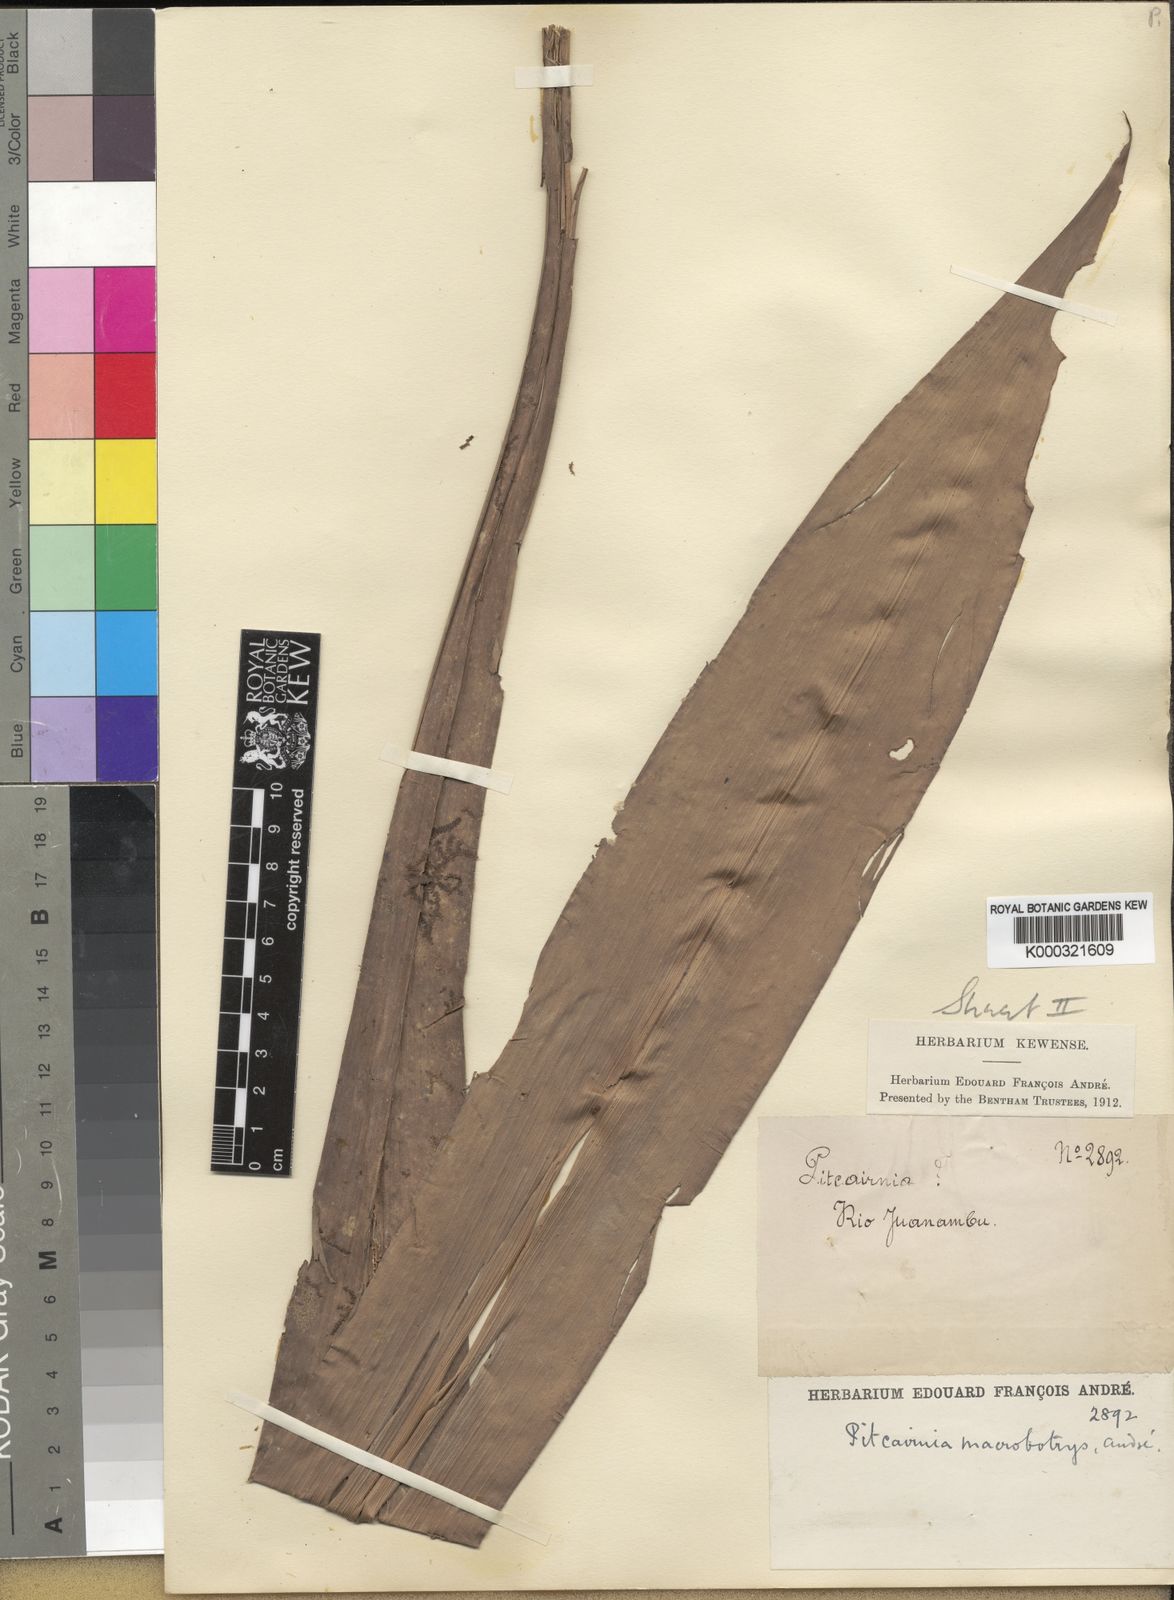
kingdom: Plantae
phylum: Tracheophyta
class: Liliopsida
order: Poales
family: Bromeliaceae
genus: Pitcairnia
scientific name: Pitcairnia
